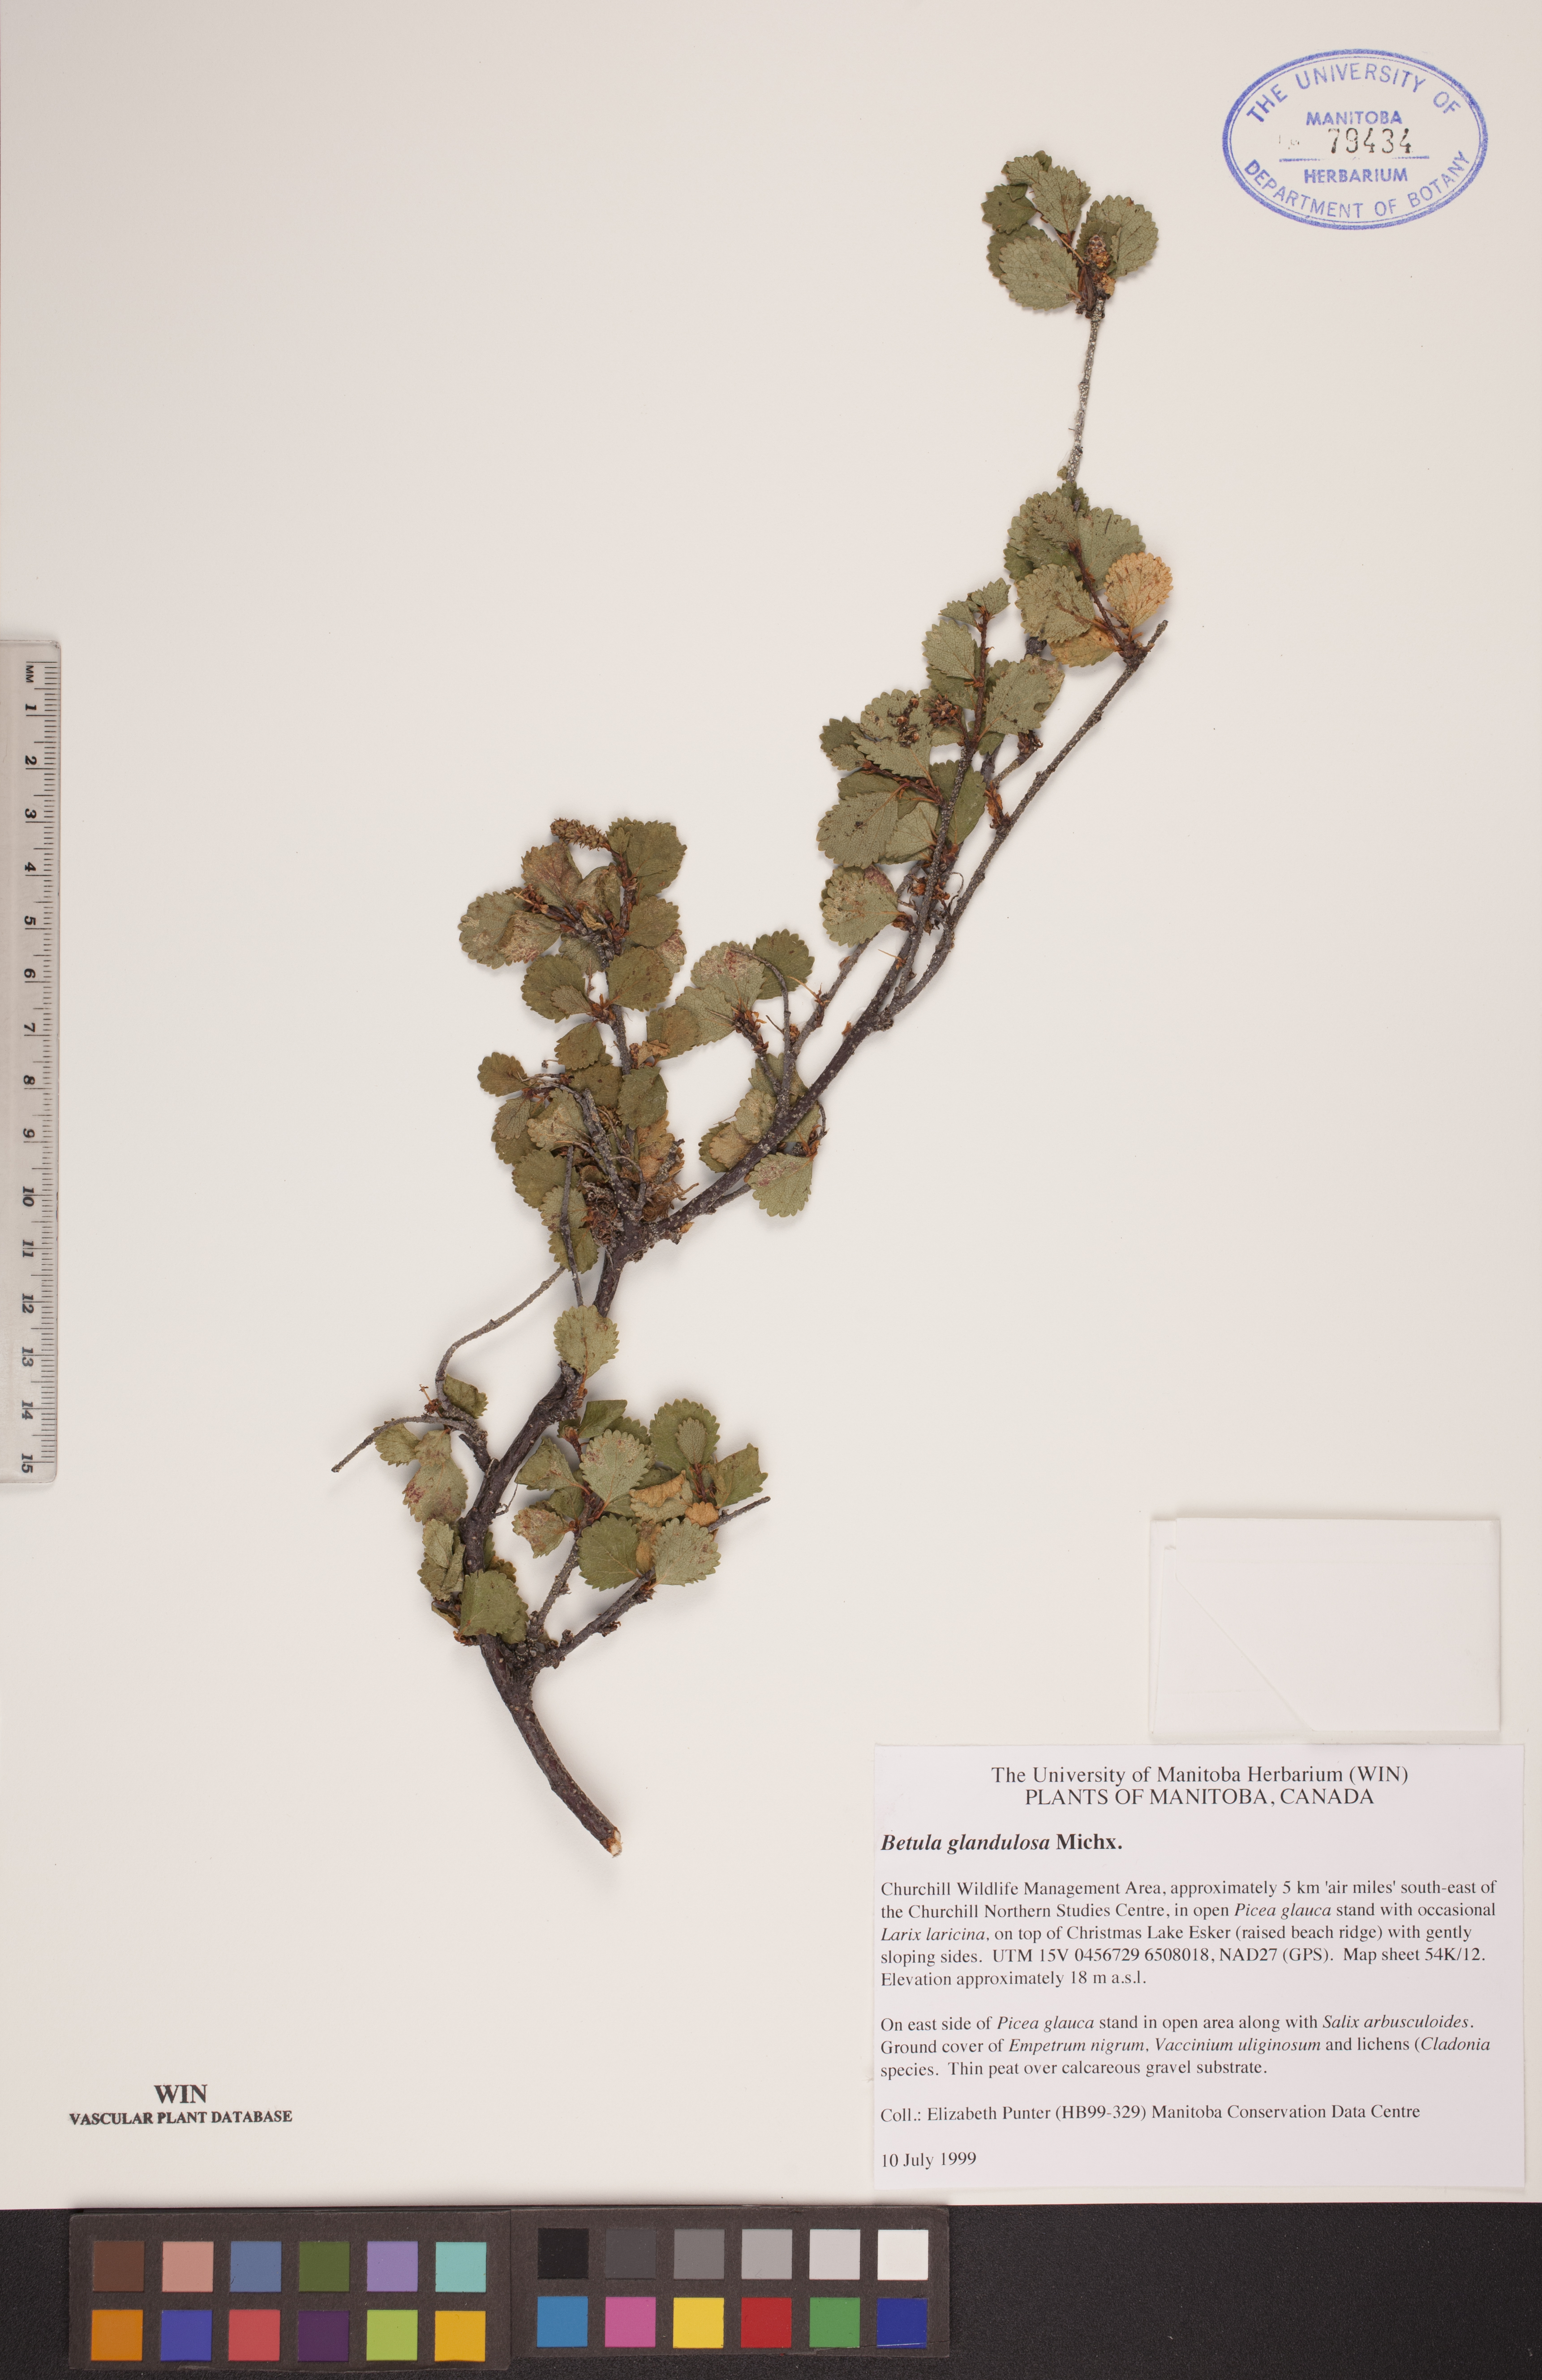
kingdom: Plantae
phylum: Tracheophyta
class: Magnoliopsida
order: Fagales
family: Betulaceae
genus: Betula
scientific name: Betula glandulosa
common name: Dwarf birch
